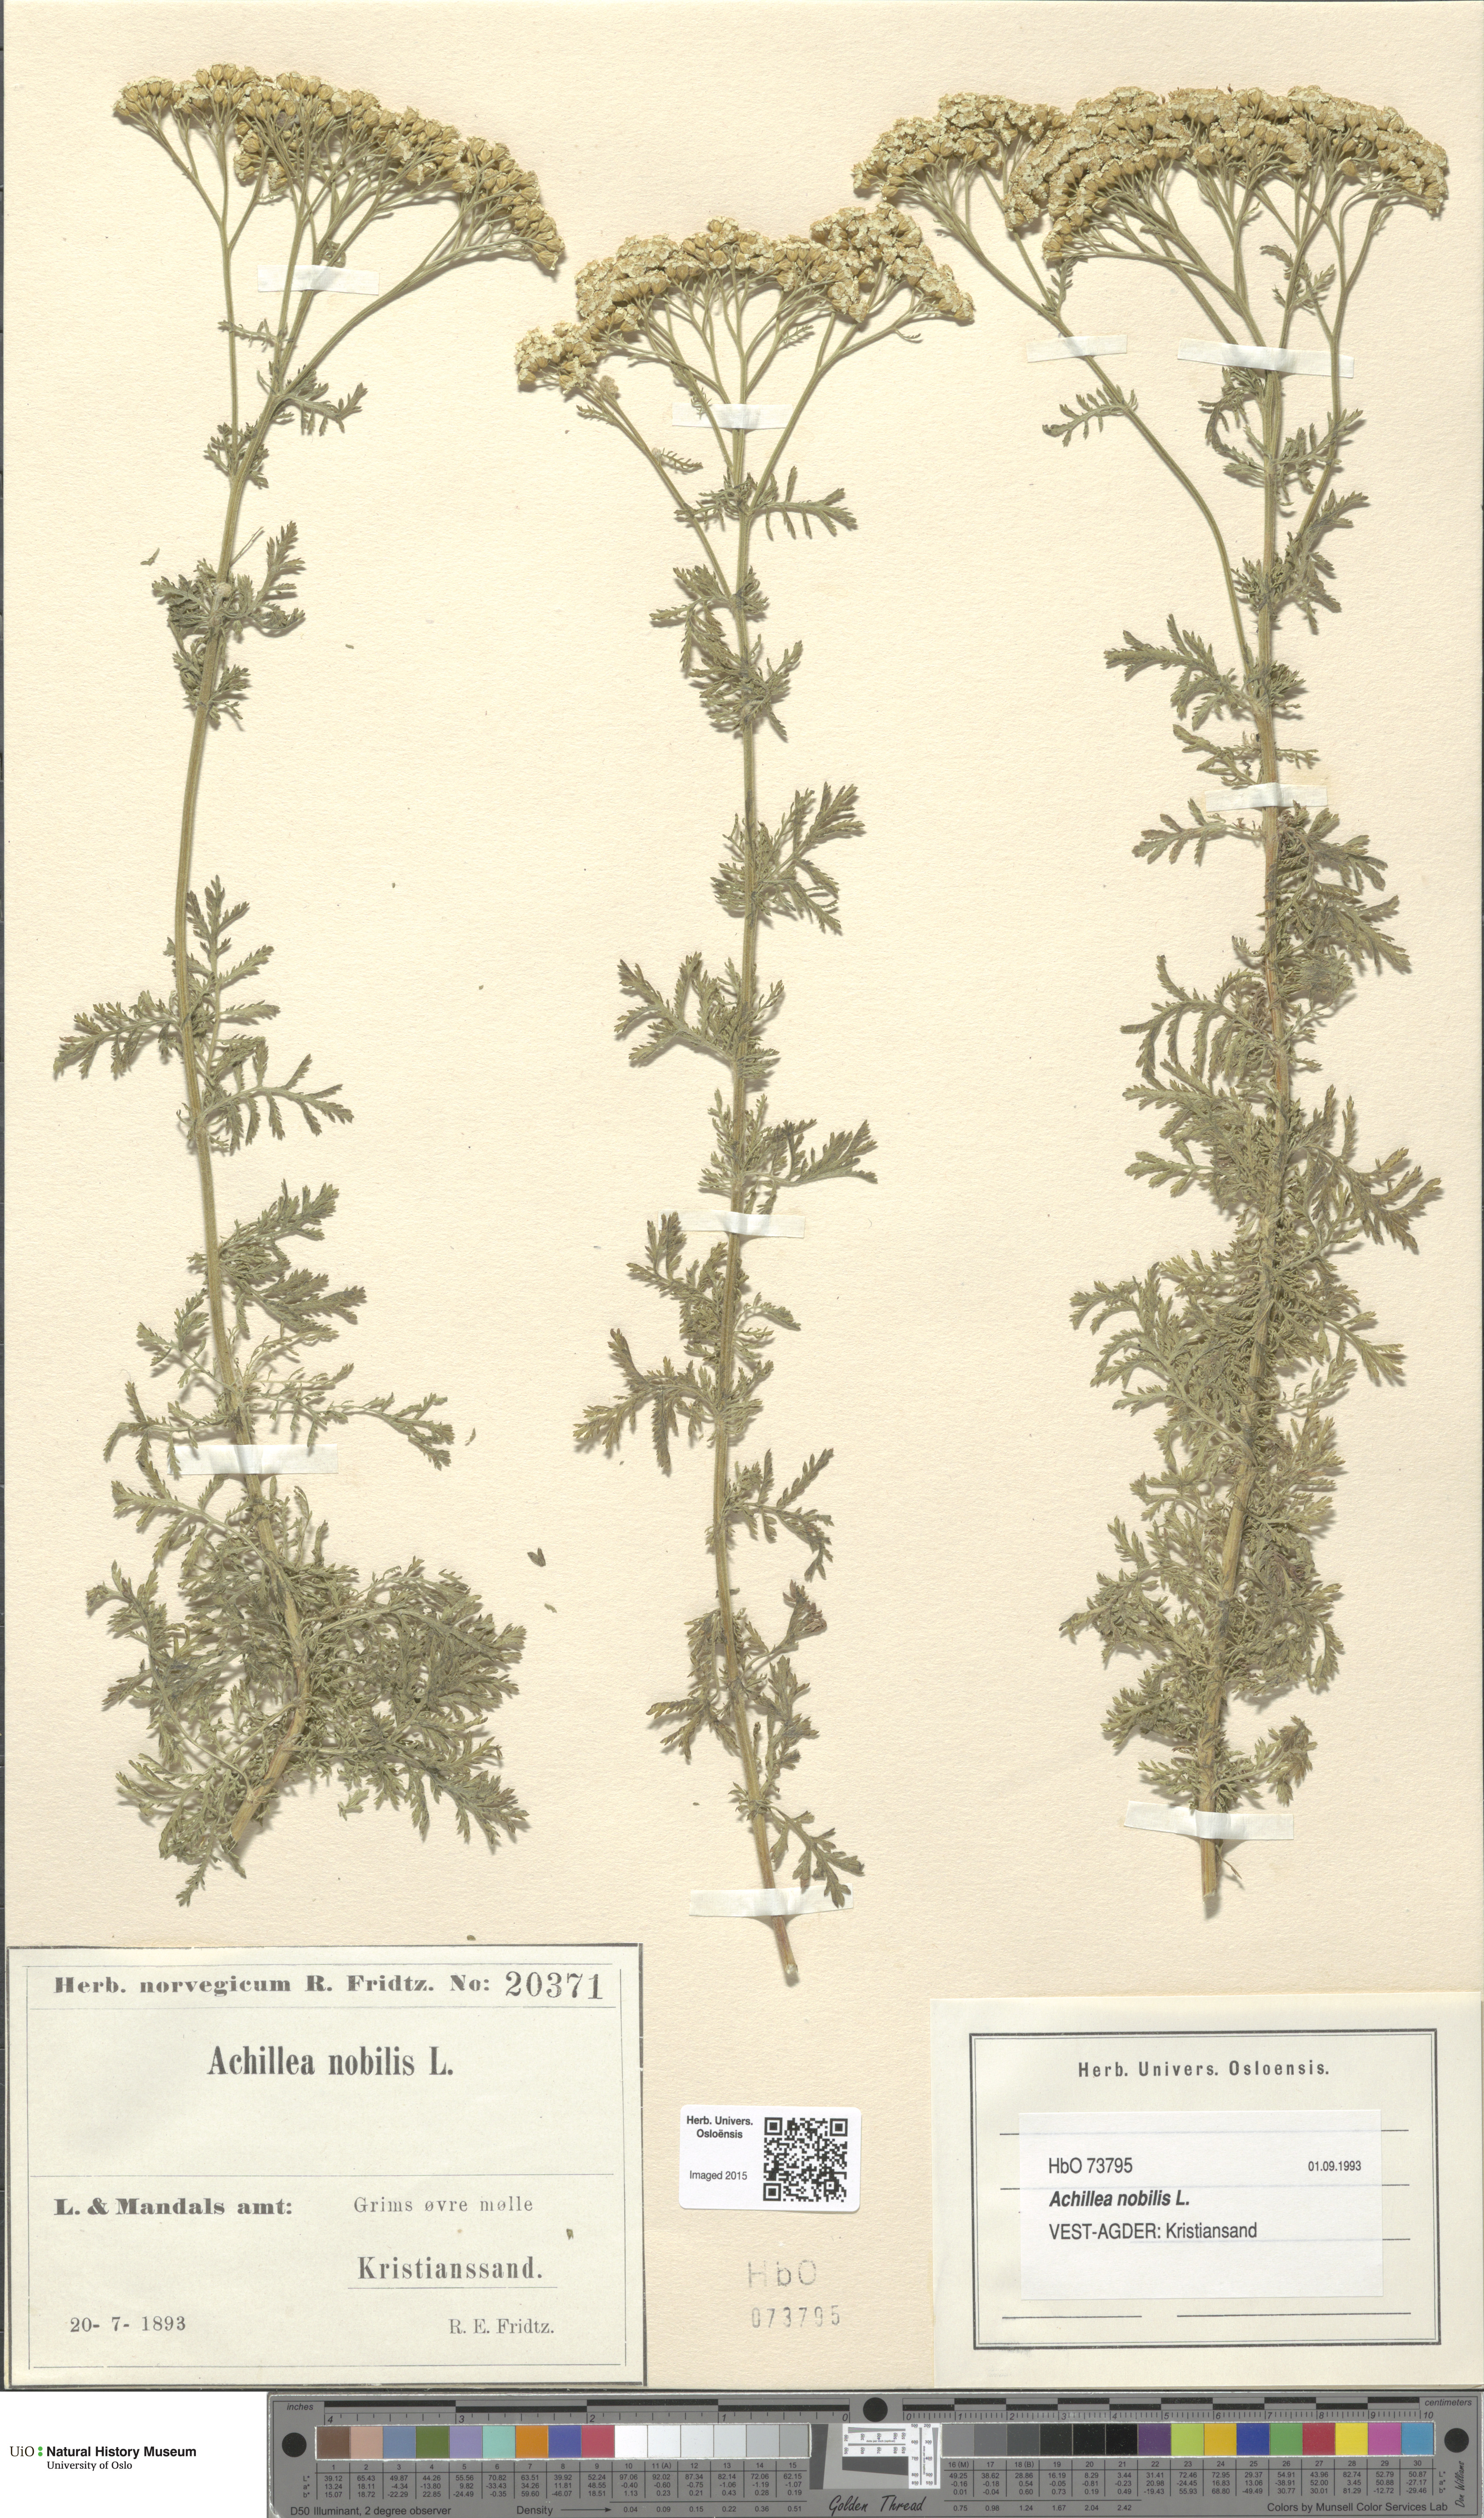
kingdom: Plantae
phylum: Tracheophyta
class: Magnoliopsida
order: Asterales
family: Asteraceae
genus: Achillea
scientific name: Achillea nobilis
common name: Noble yarrow
